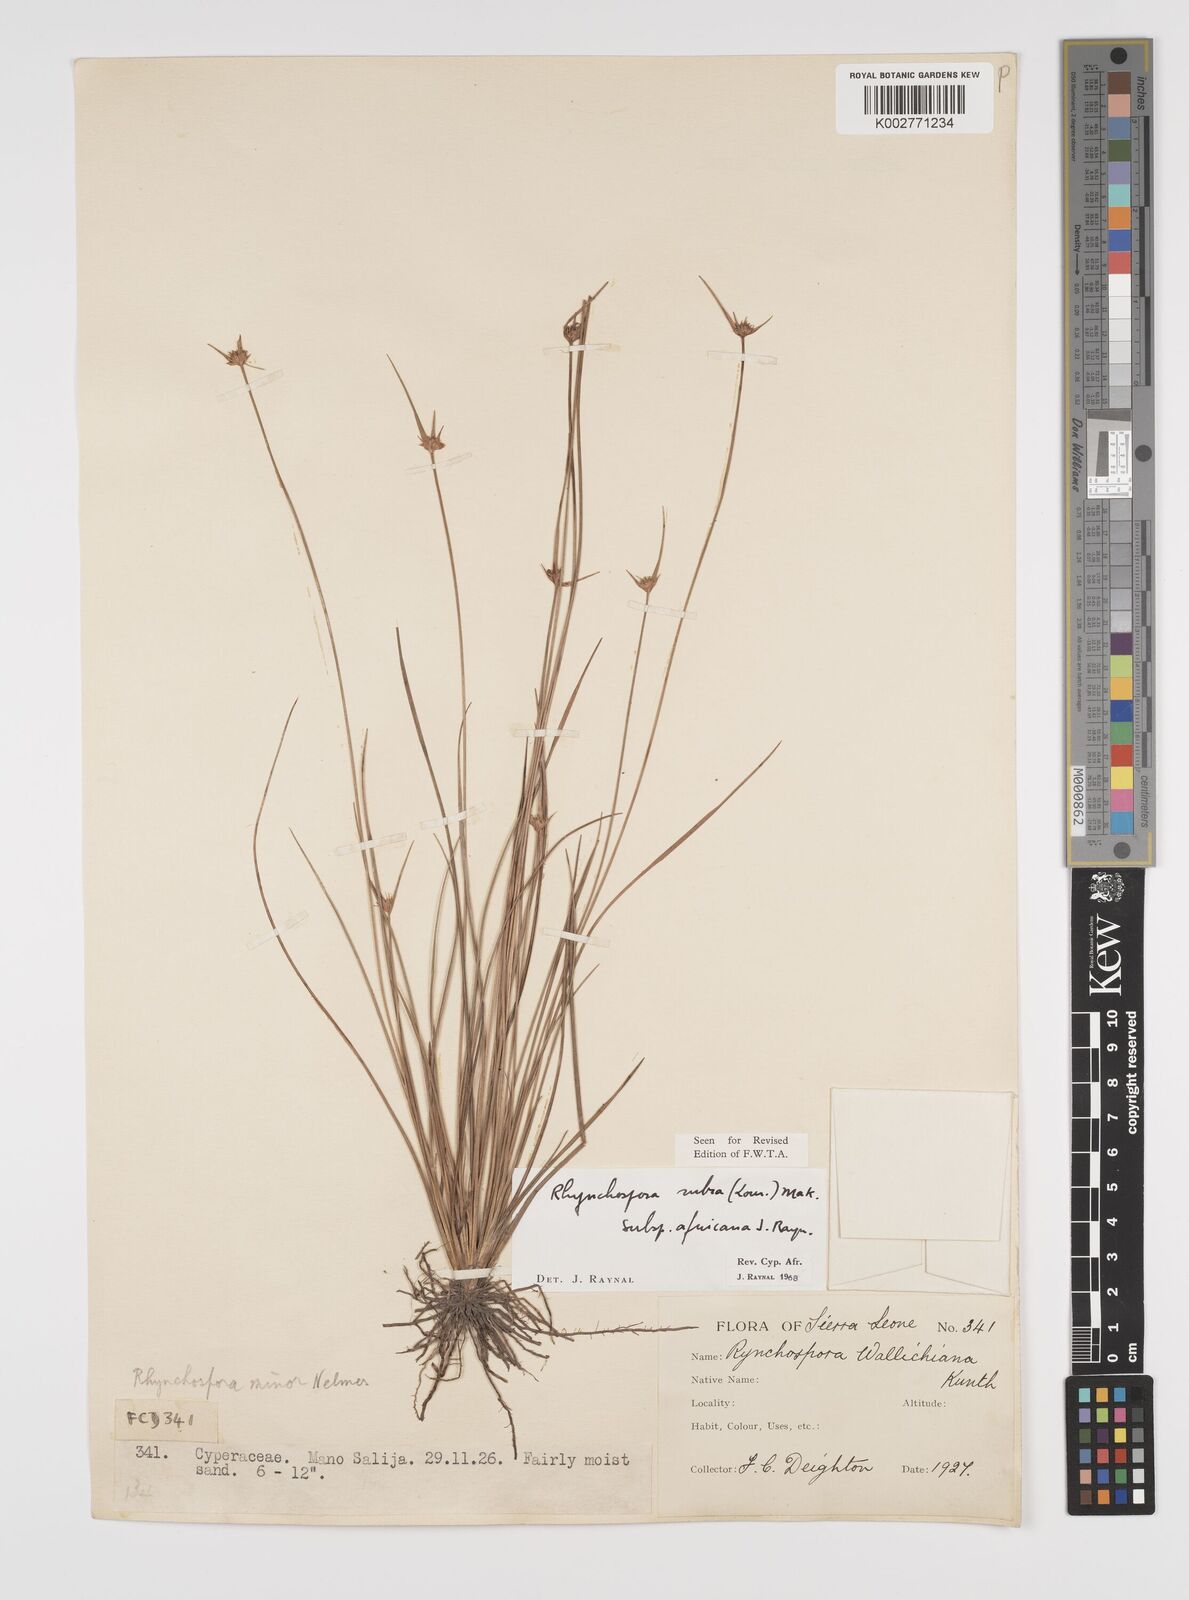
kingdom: Plantae
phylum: Tracheophyta
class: Liliopsida
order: Poales
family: Cyperaceae
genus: Rhynchospora
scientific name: Rhynchospora rubra
